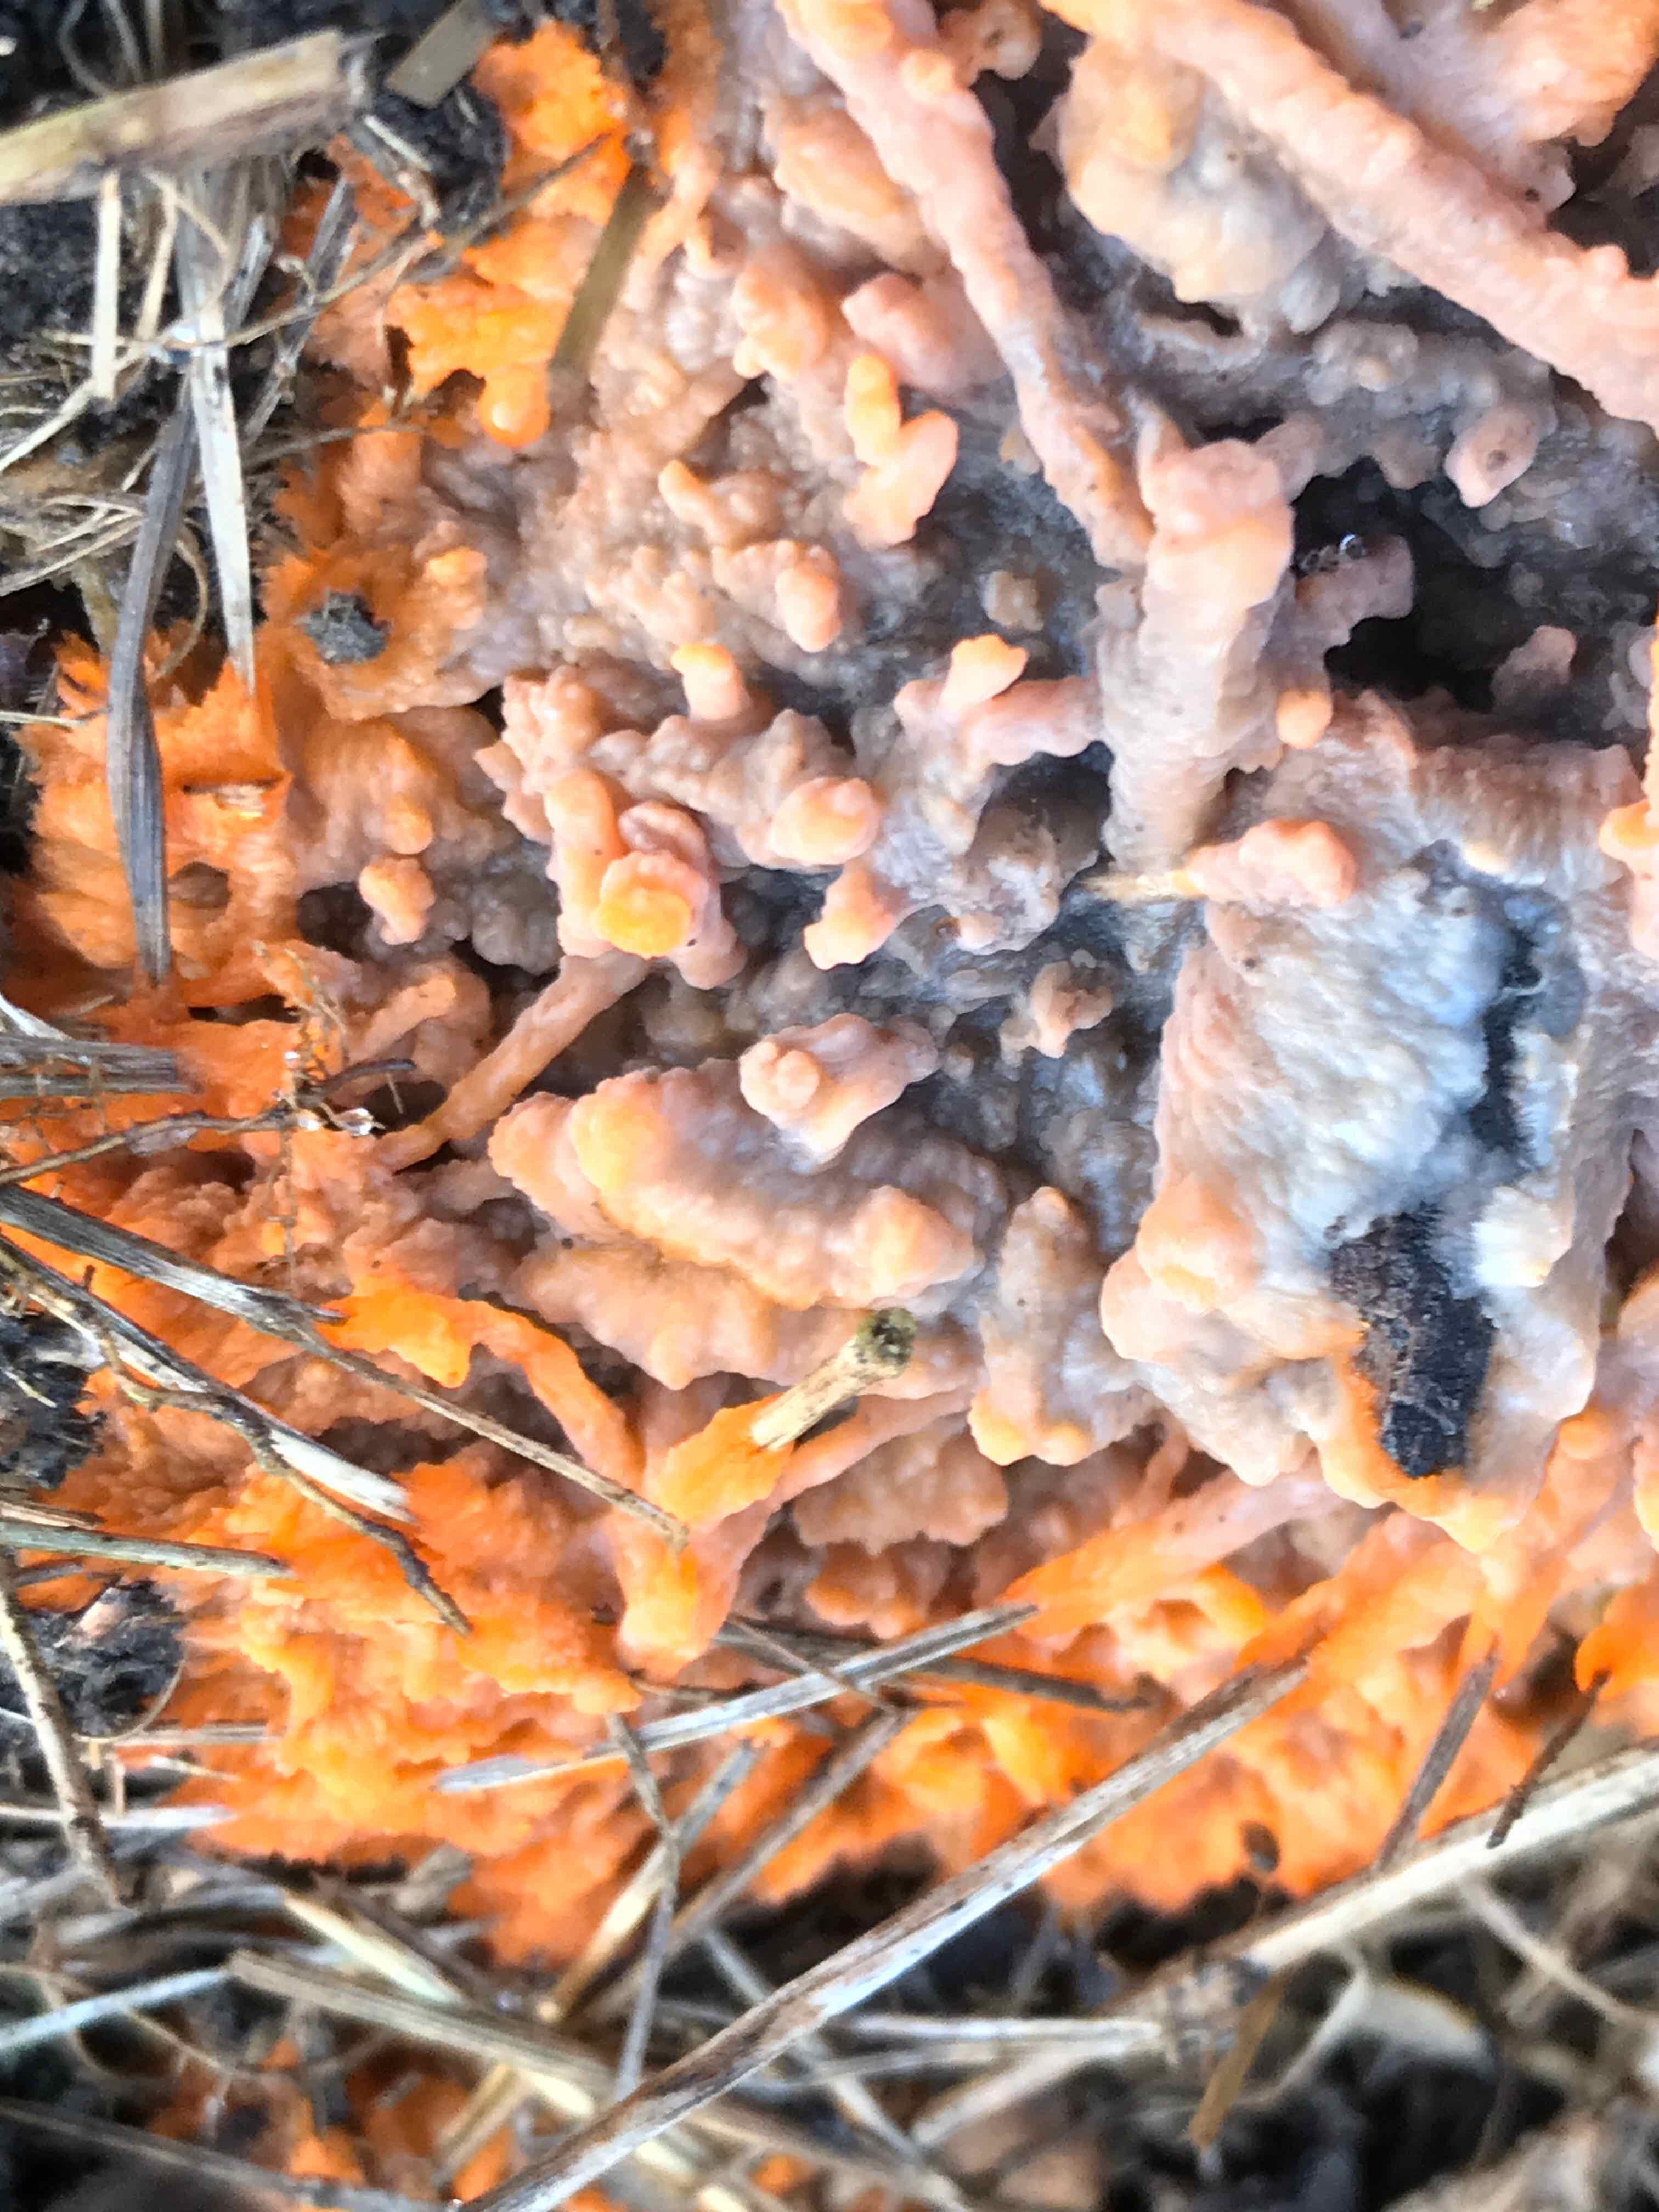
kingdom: Fungi
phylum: Basidiomycota
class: Agaricomycetes
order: Polyporales
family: Meruliaceae
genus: Phlebia
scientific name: Phlebia radiata
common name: stråle-åresvamp
